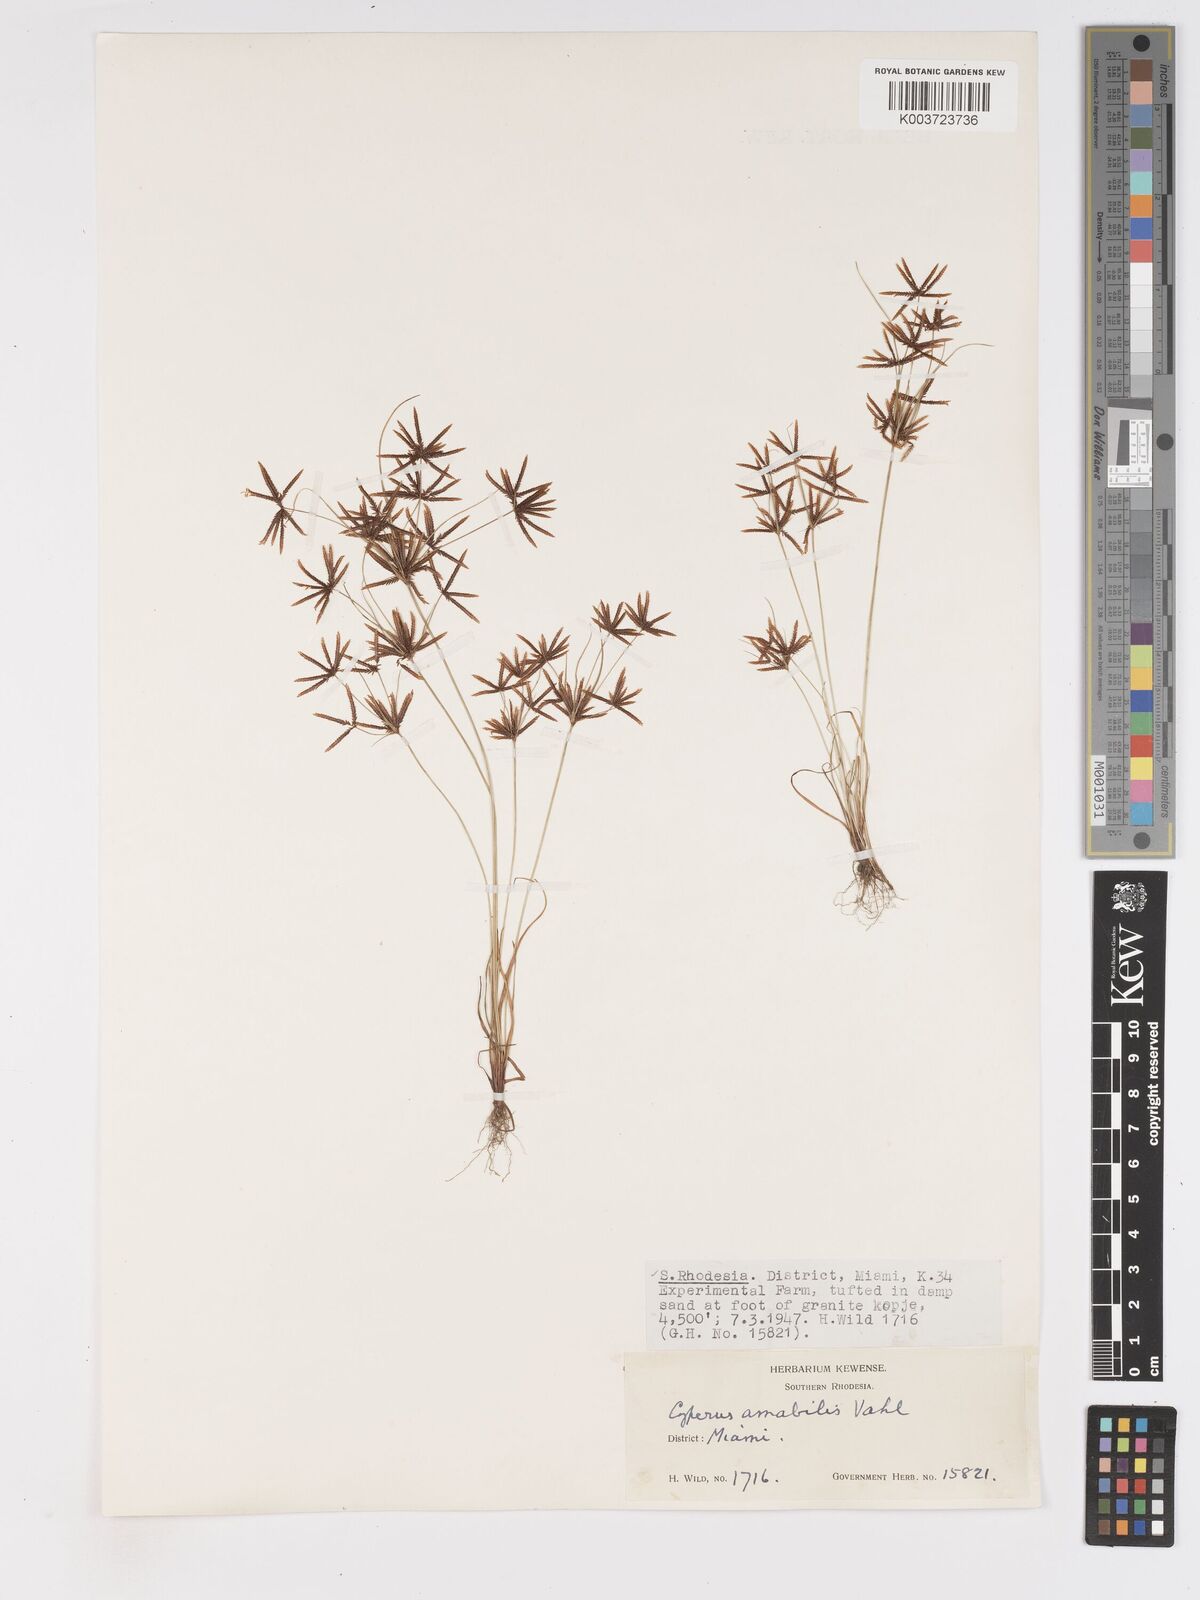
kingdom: Plantae
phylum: Tracheophyta
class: Liliopsida
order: Poales
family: Cyperaceae
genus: Cyperus
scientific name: Cyperus amabilis
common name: Foothill flat sedge
